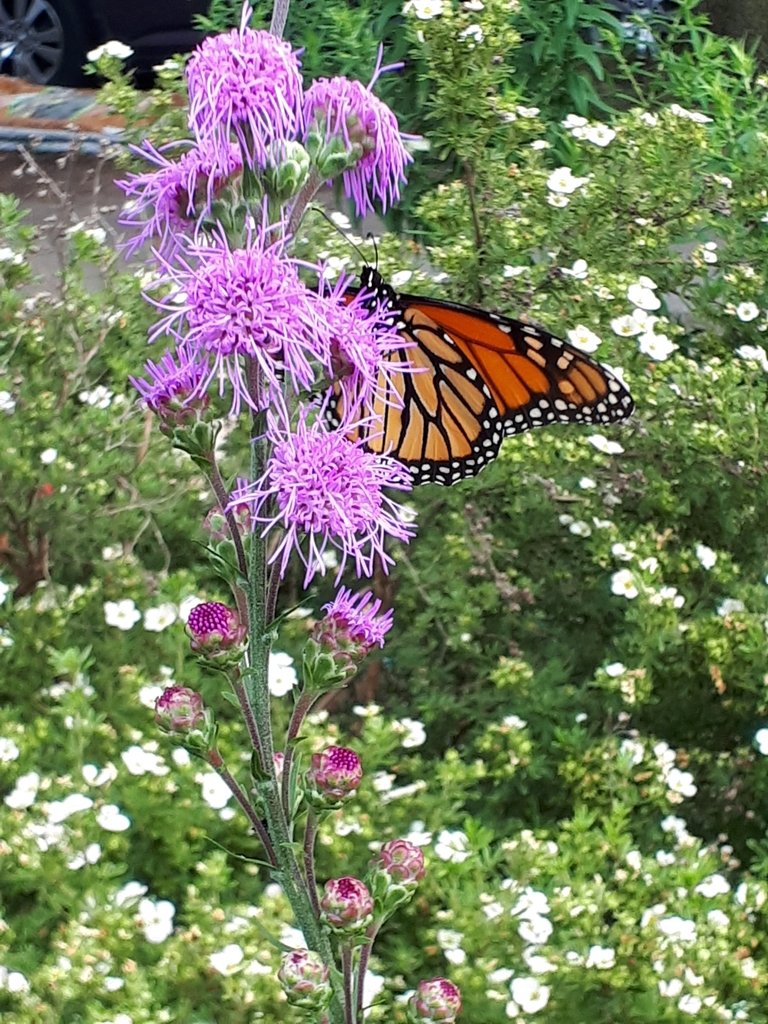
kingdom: Animalia
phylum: Arthropoda
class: Insecta
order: Lepidoptera
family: Nymphalidae
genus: Danaus
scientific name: Danaus plexippus
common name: Monarch
